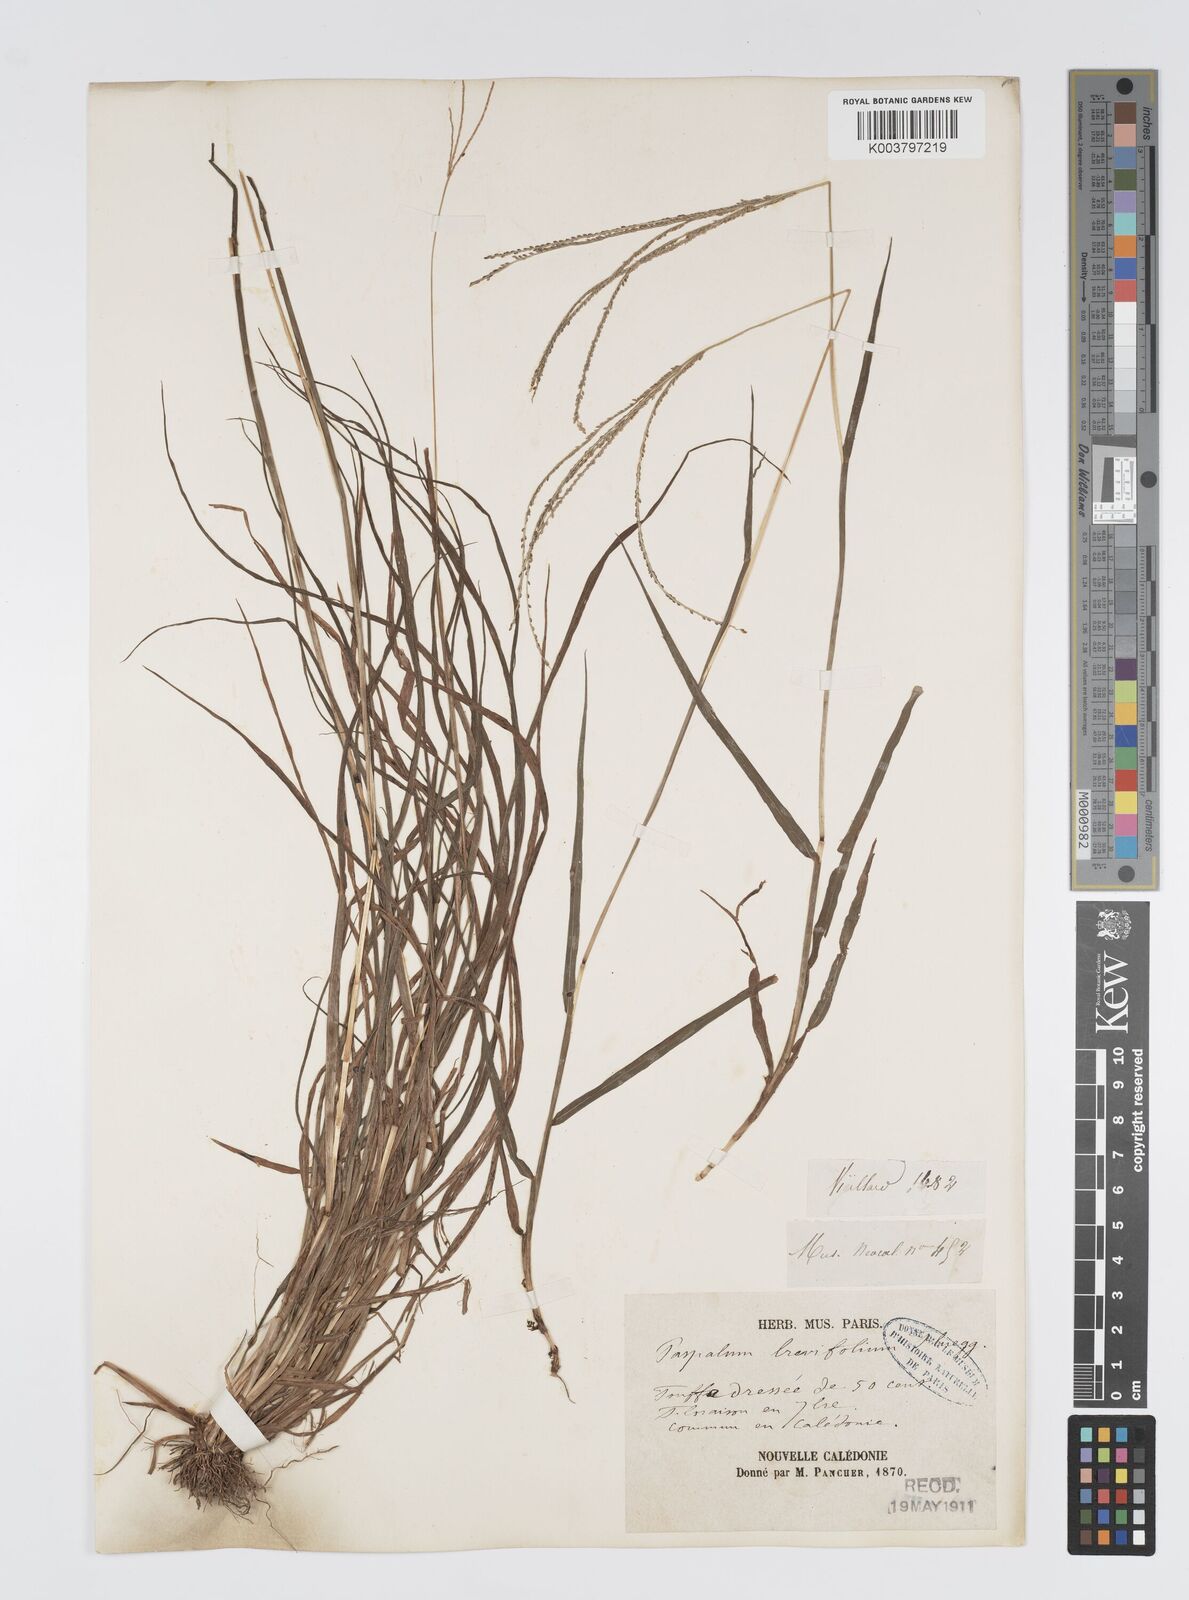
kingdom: Plantae
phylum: Tracheophyta
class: Liliopsida
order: Poales
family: Poaceae
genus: Digitaria
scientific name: Digitaria caledonica
